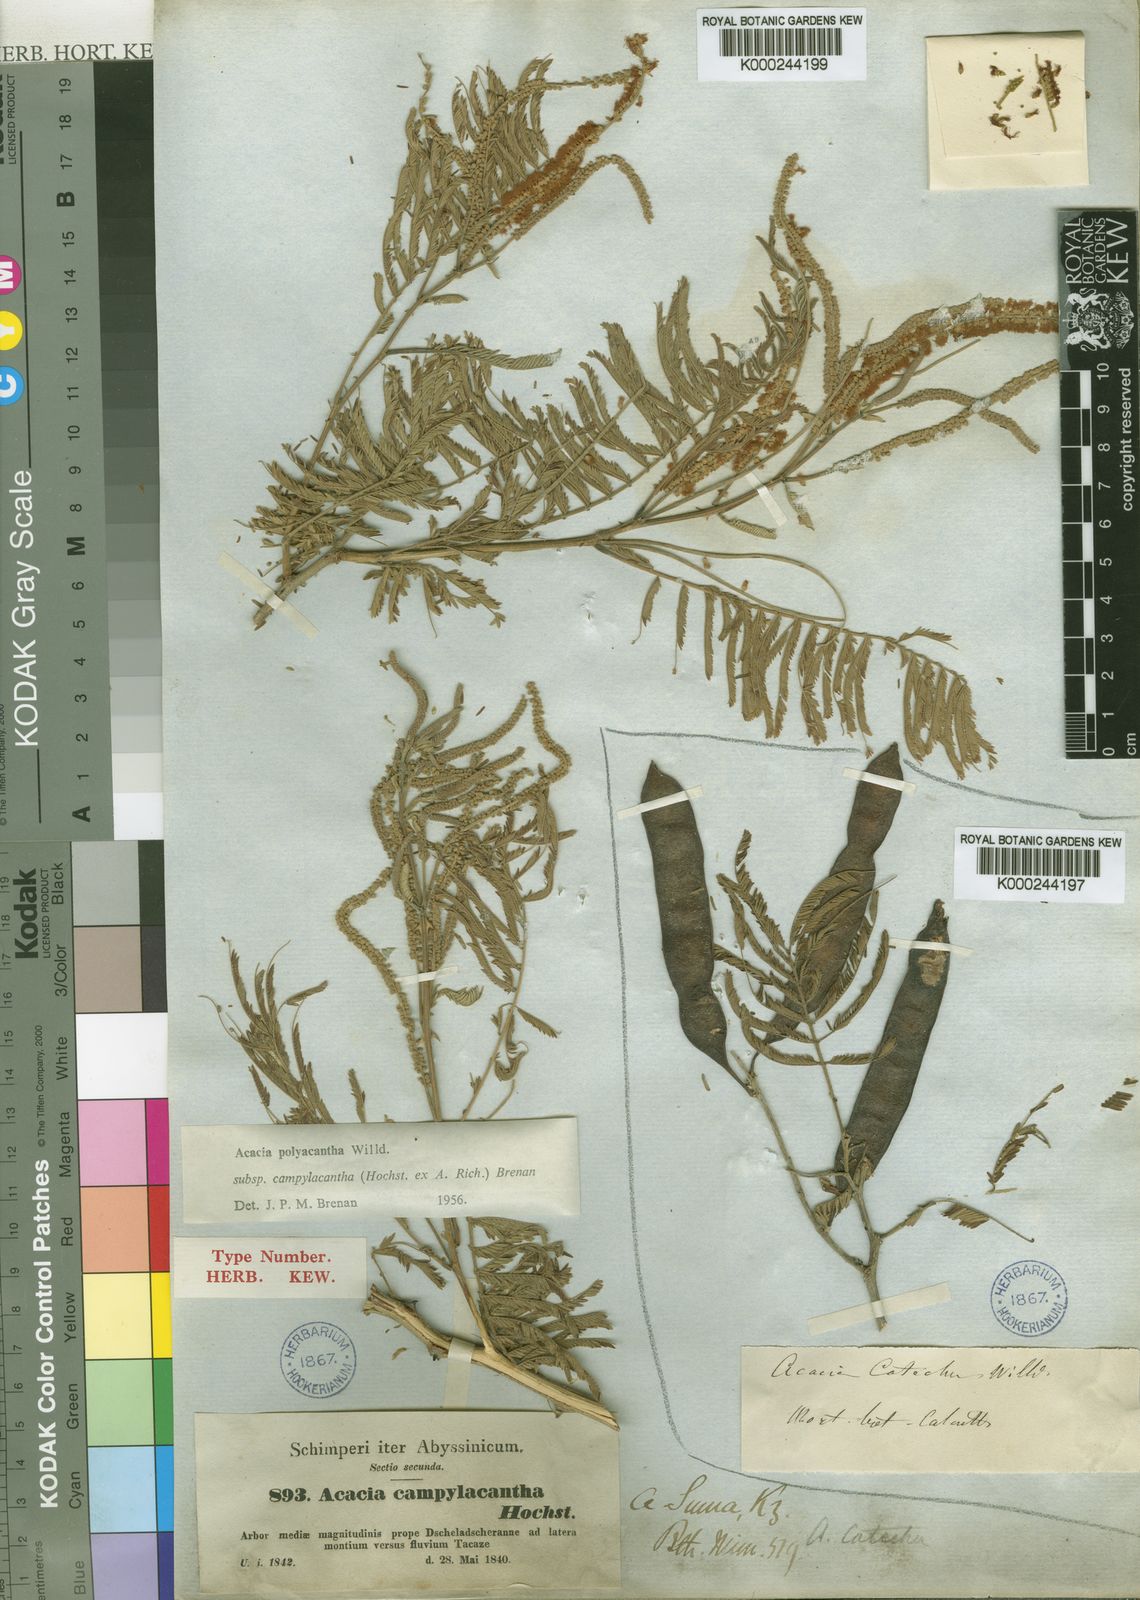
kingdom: Plantae
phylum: Tracheophyta
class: Magnoliopsida
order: Fabales
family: Fabaceae
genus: Senegalia
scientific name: Senegalia polyacantha
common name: Whitethorn
